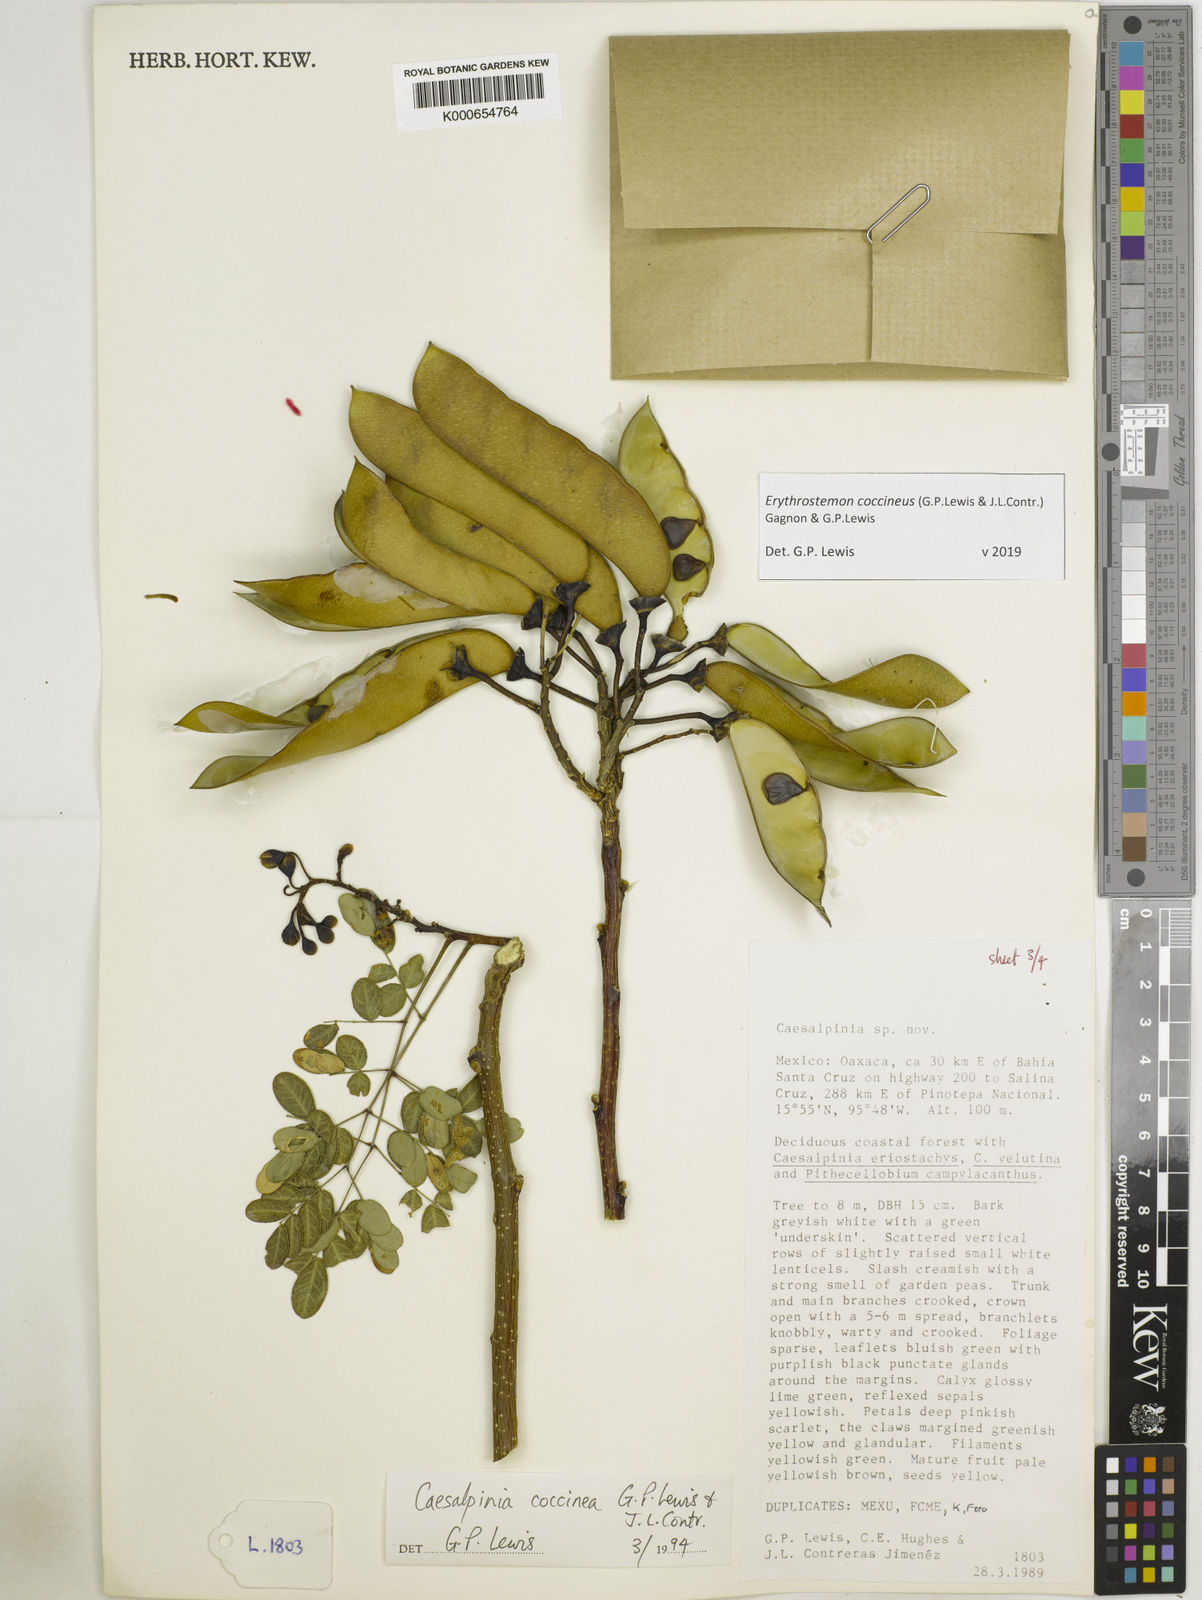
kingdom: Plantae
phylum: Tracheophyta
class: Magnoliopsida
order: Fabales
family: Fabaceae
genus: Erythrostemon
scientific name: Erythrostemon coccineus
